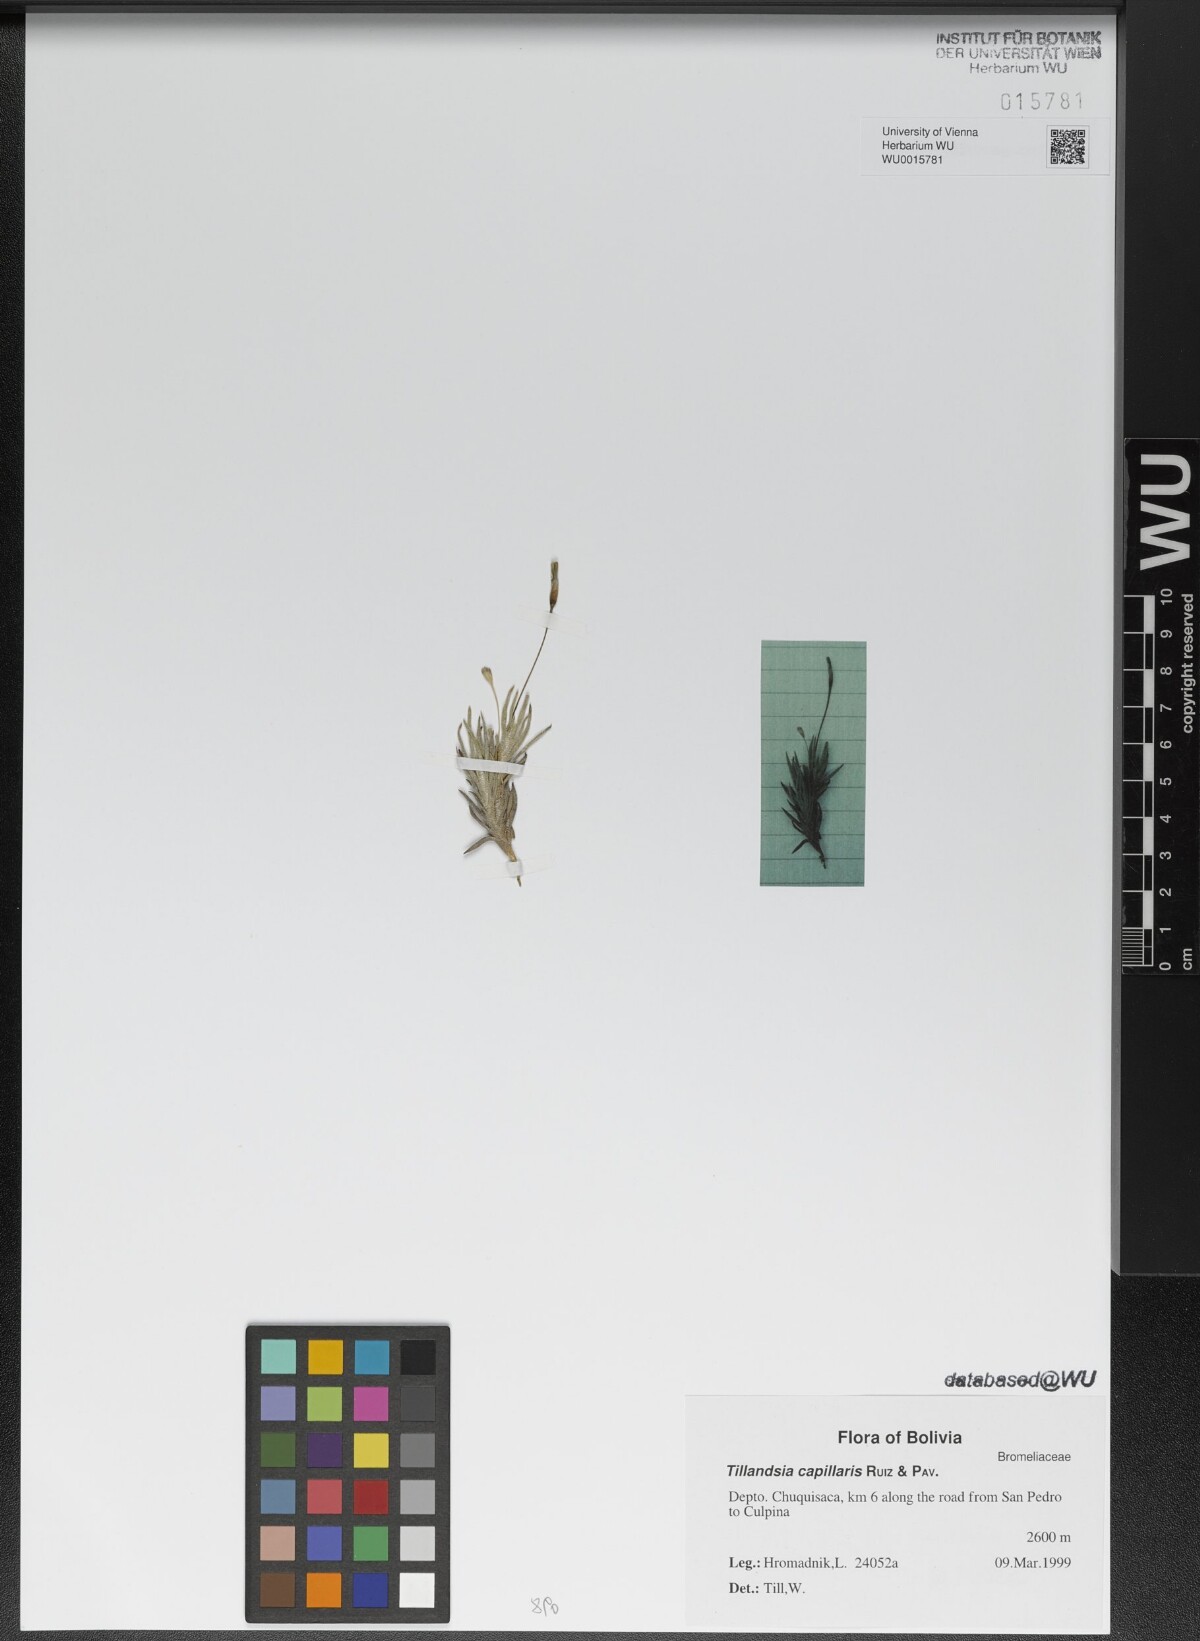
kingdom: Plantae
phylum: Tracheophyta
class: Liliopsida
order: Poales
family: Bromeliaceae
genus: Tillandsia
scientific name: Tillandsia capillaris
